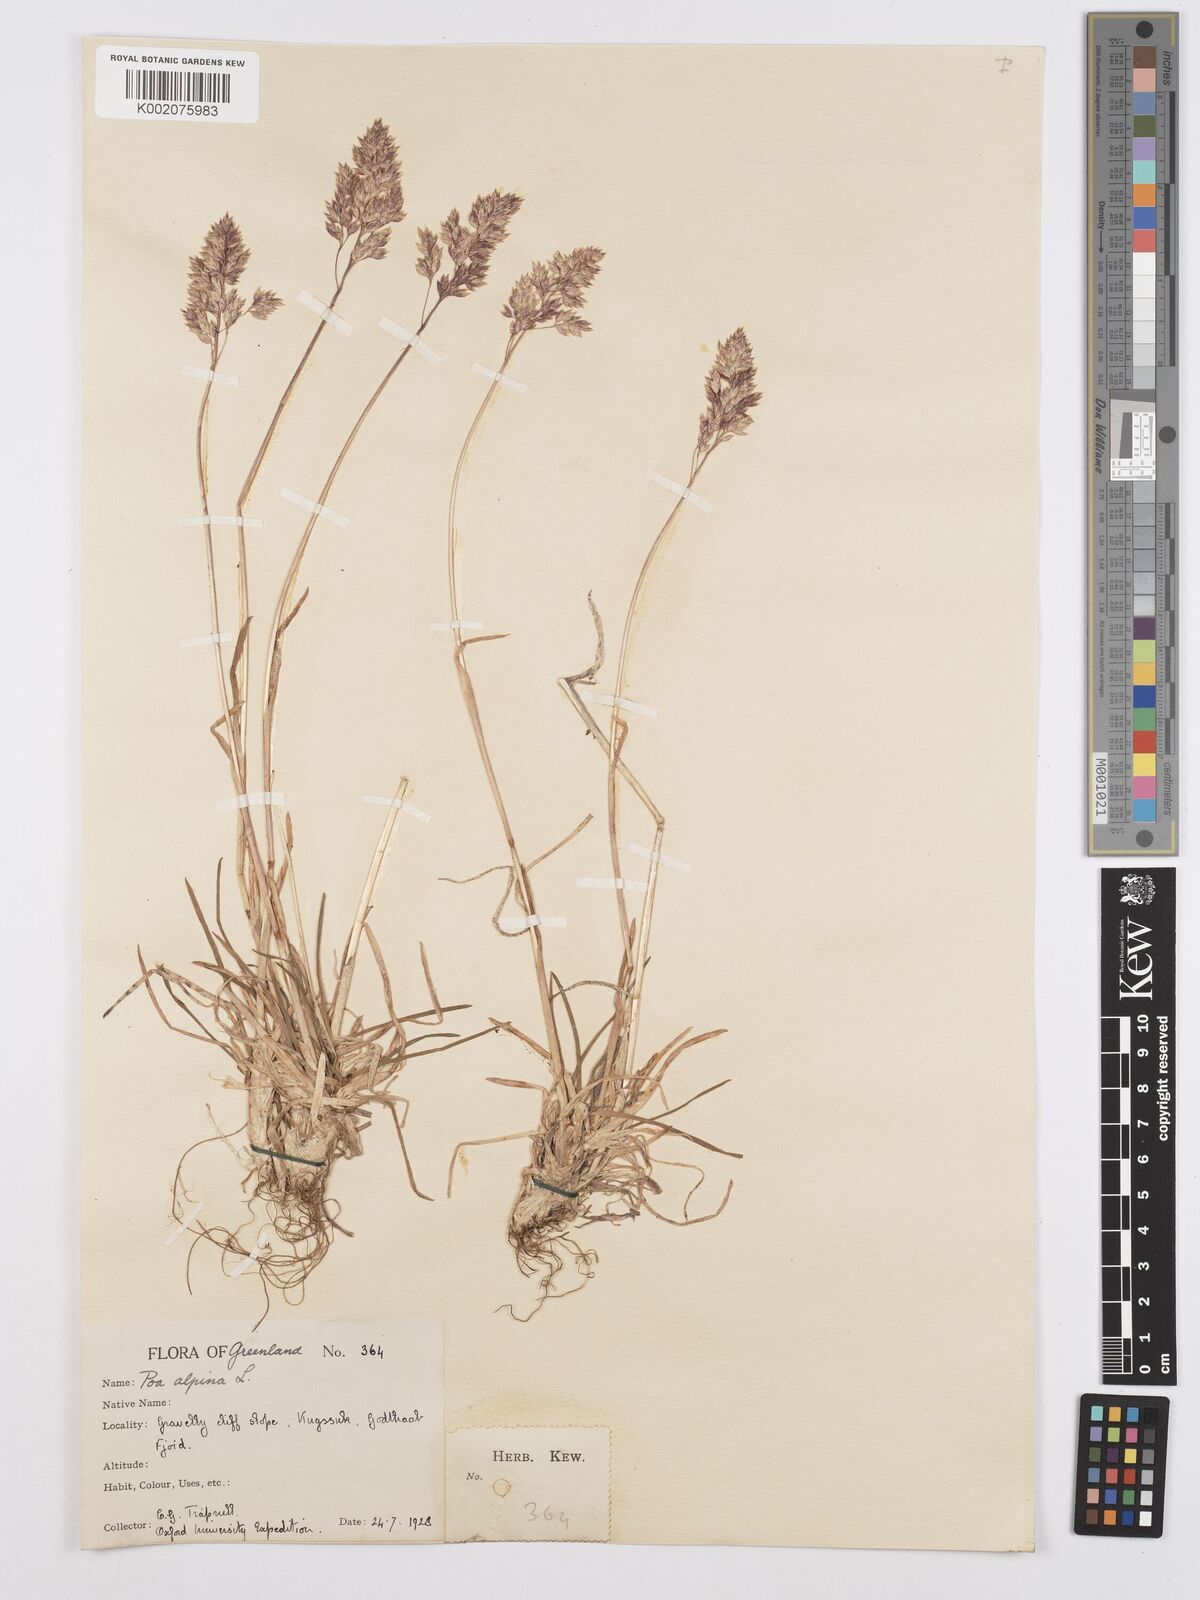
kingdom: Plantae
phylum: Tracheophyta
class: Liliopsida
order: Poales
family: Poaceae
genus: Poa
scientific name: Poa alpina
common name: Alpine bluegrass
